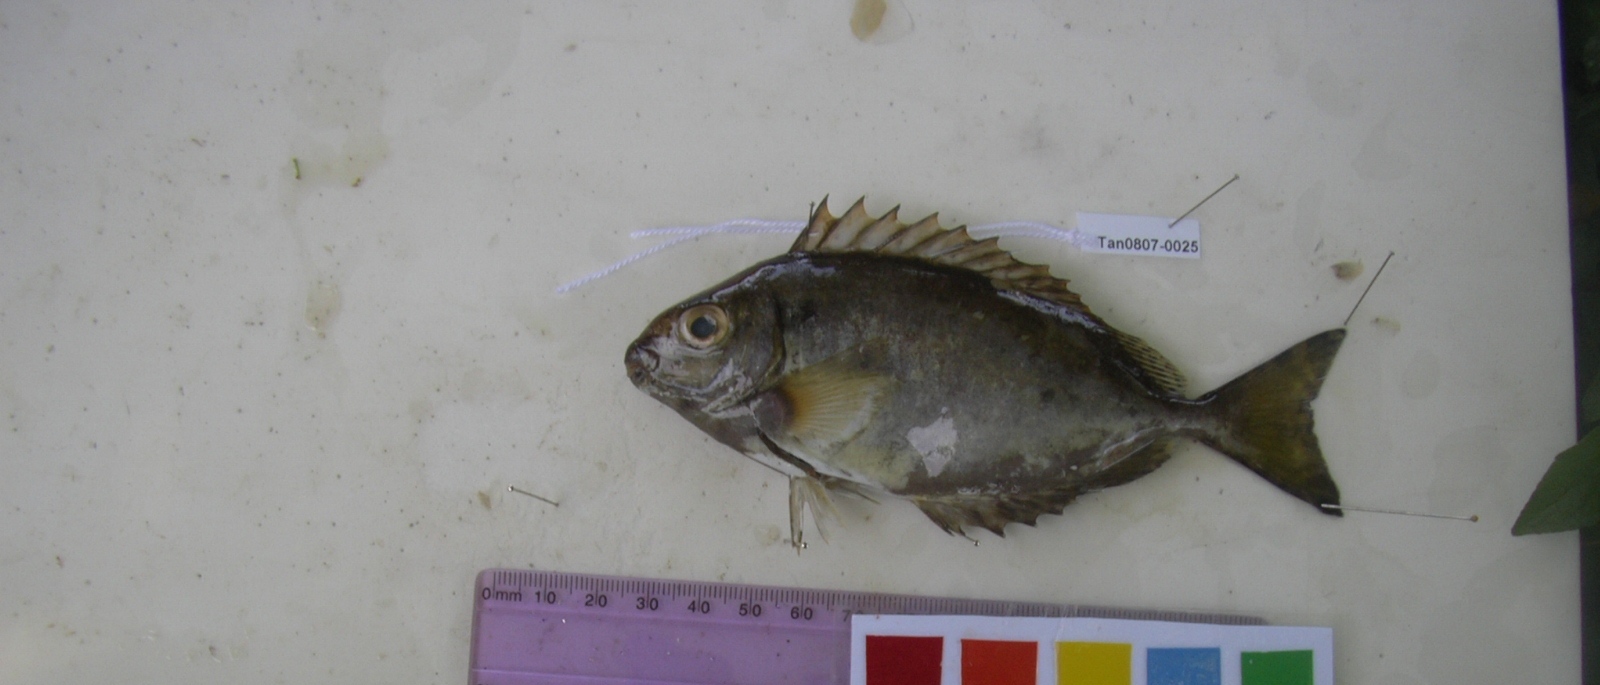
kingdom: Animalia
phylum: Chordata
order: Perciformes
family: Siganidae
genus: Siganus
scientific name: Siganus sutor
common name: Shoemaker spinefoot
